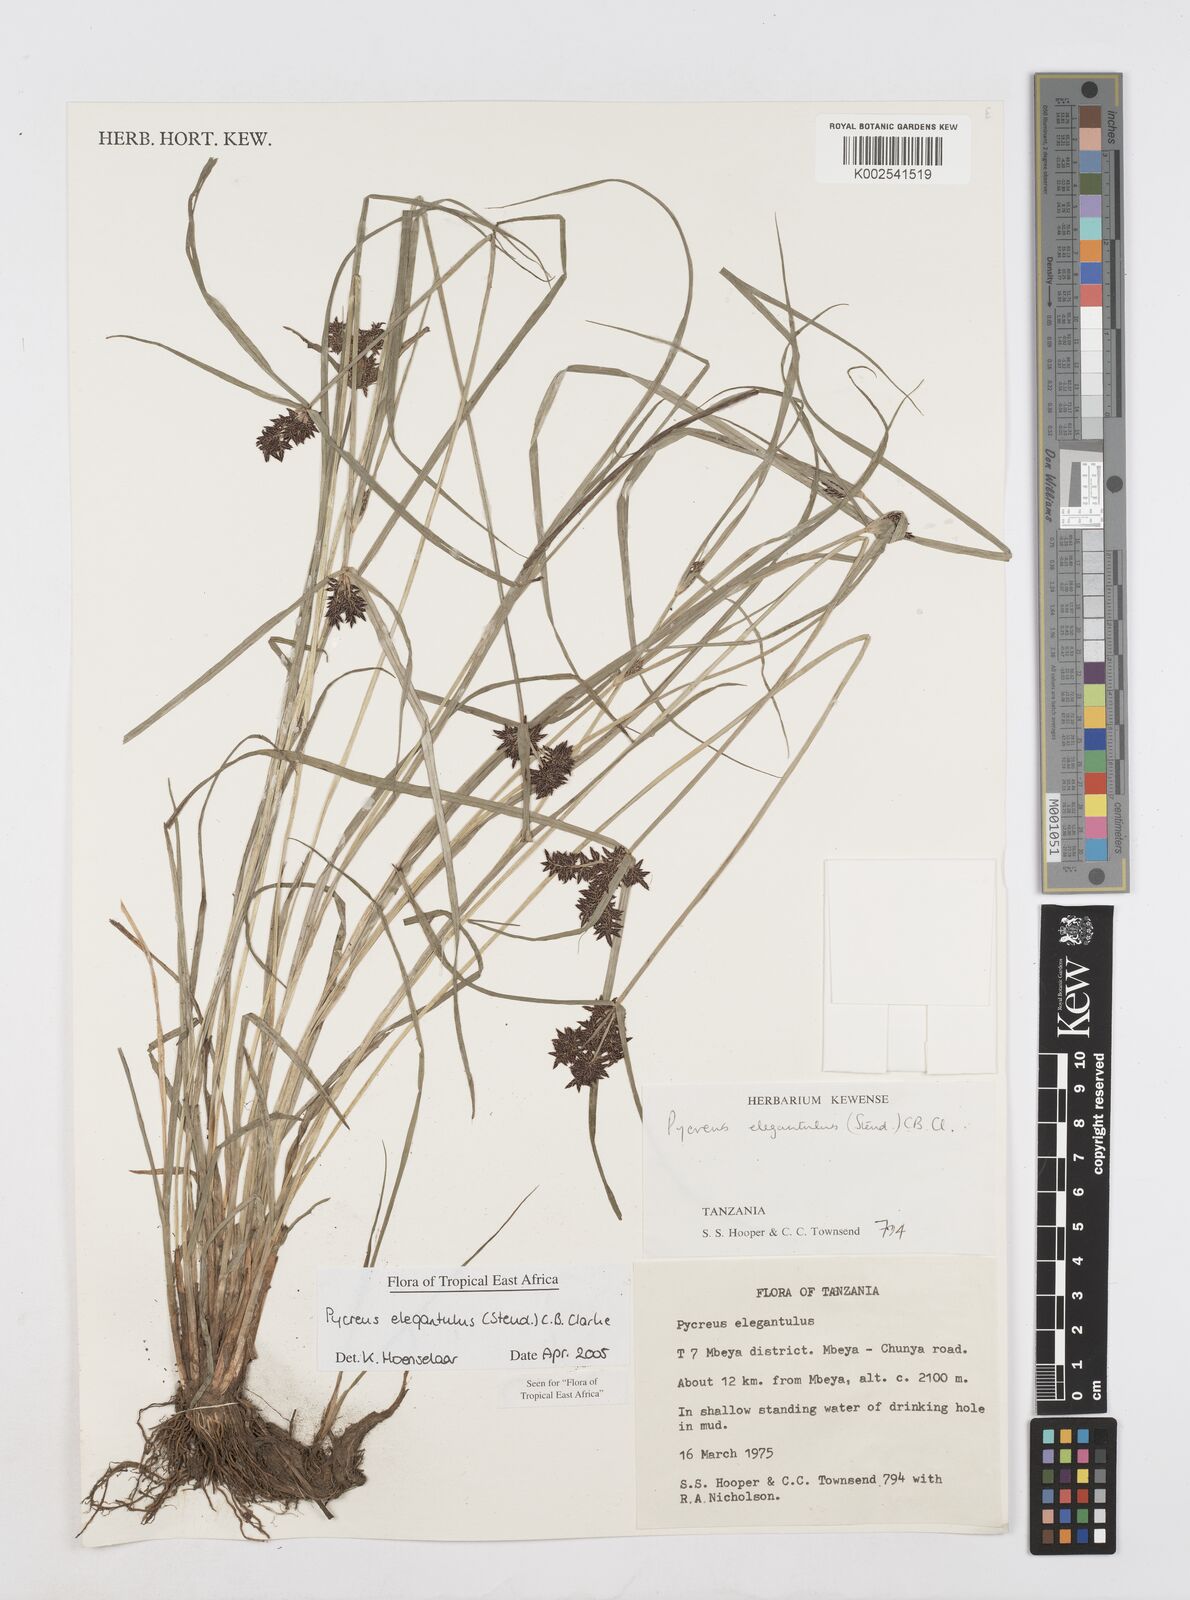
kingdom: Plantae
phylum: Tracheophyta
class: Liliopsida
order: Poales
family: Cyperaceae
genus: Cyperus
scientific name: Cyperus elegantulus
